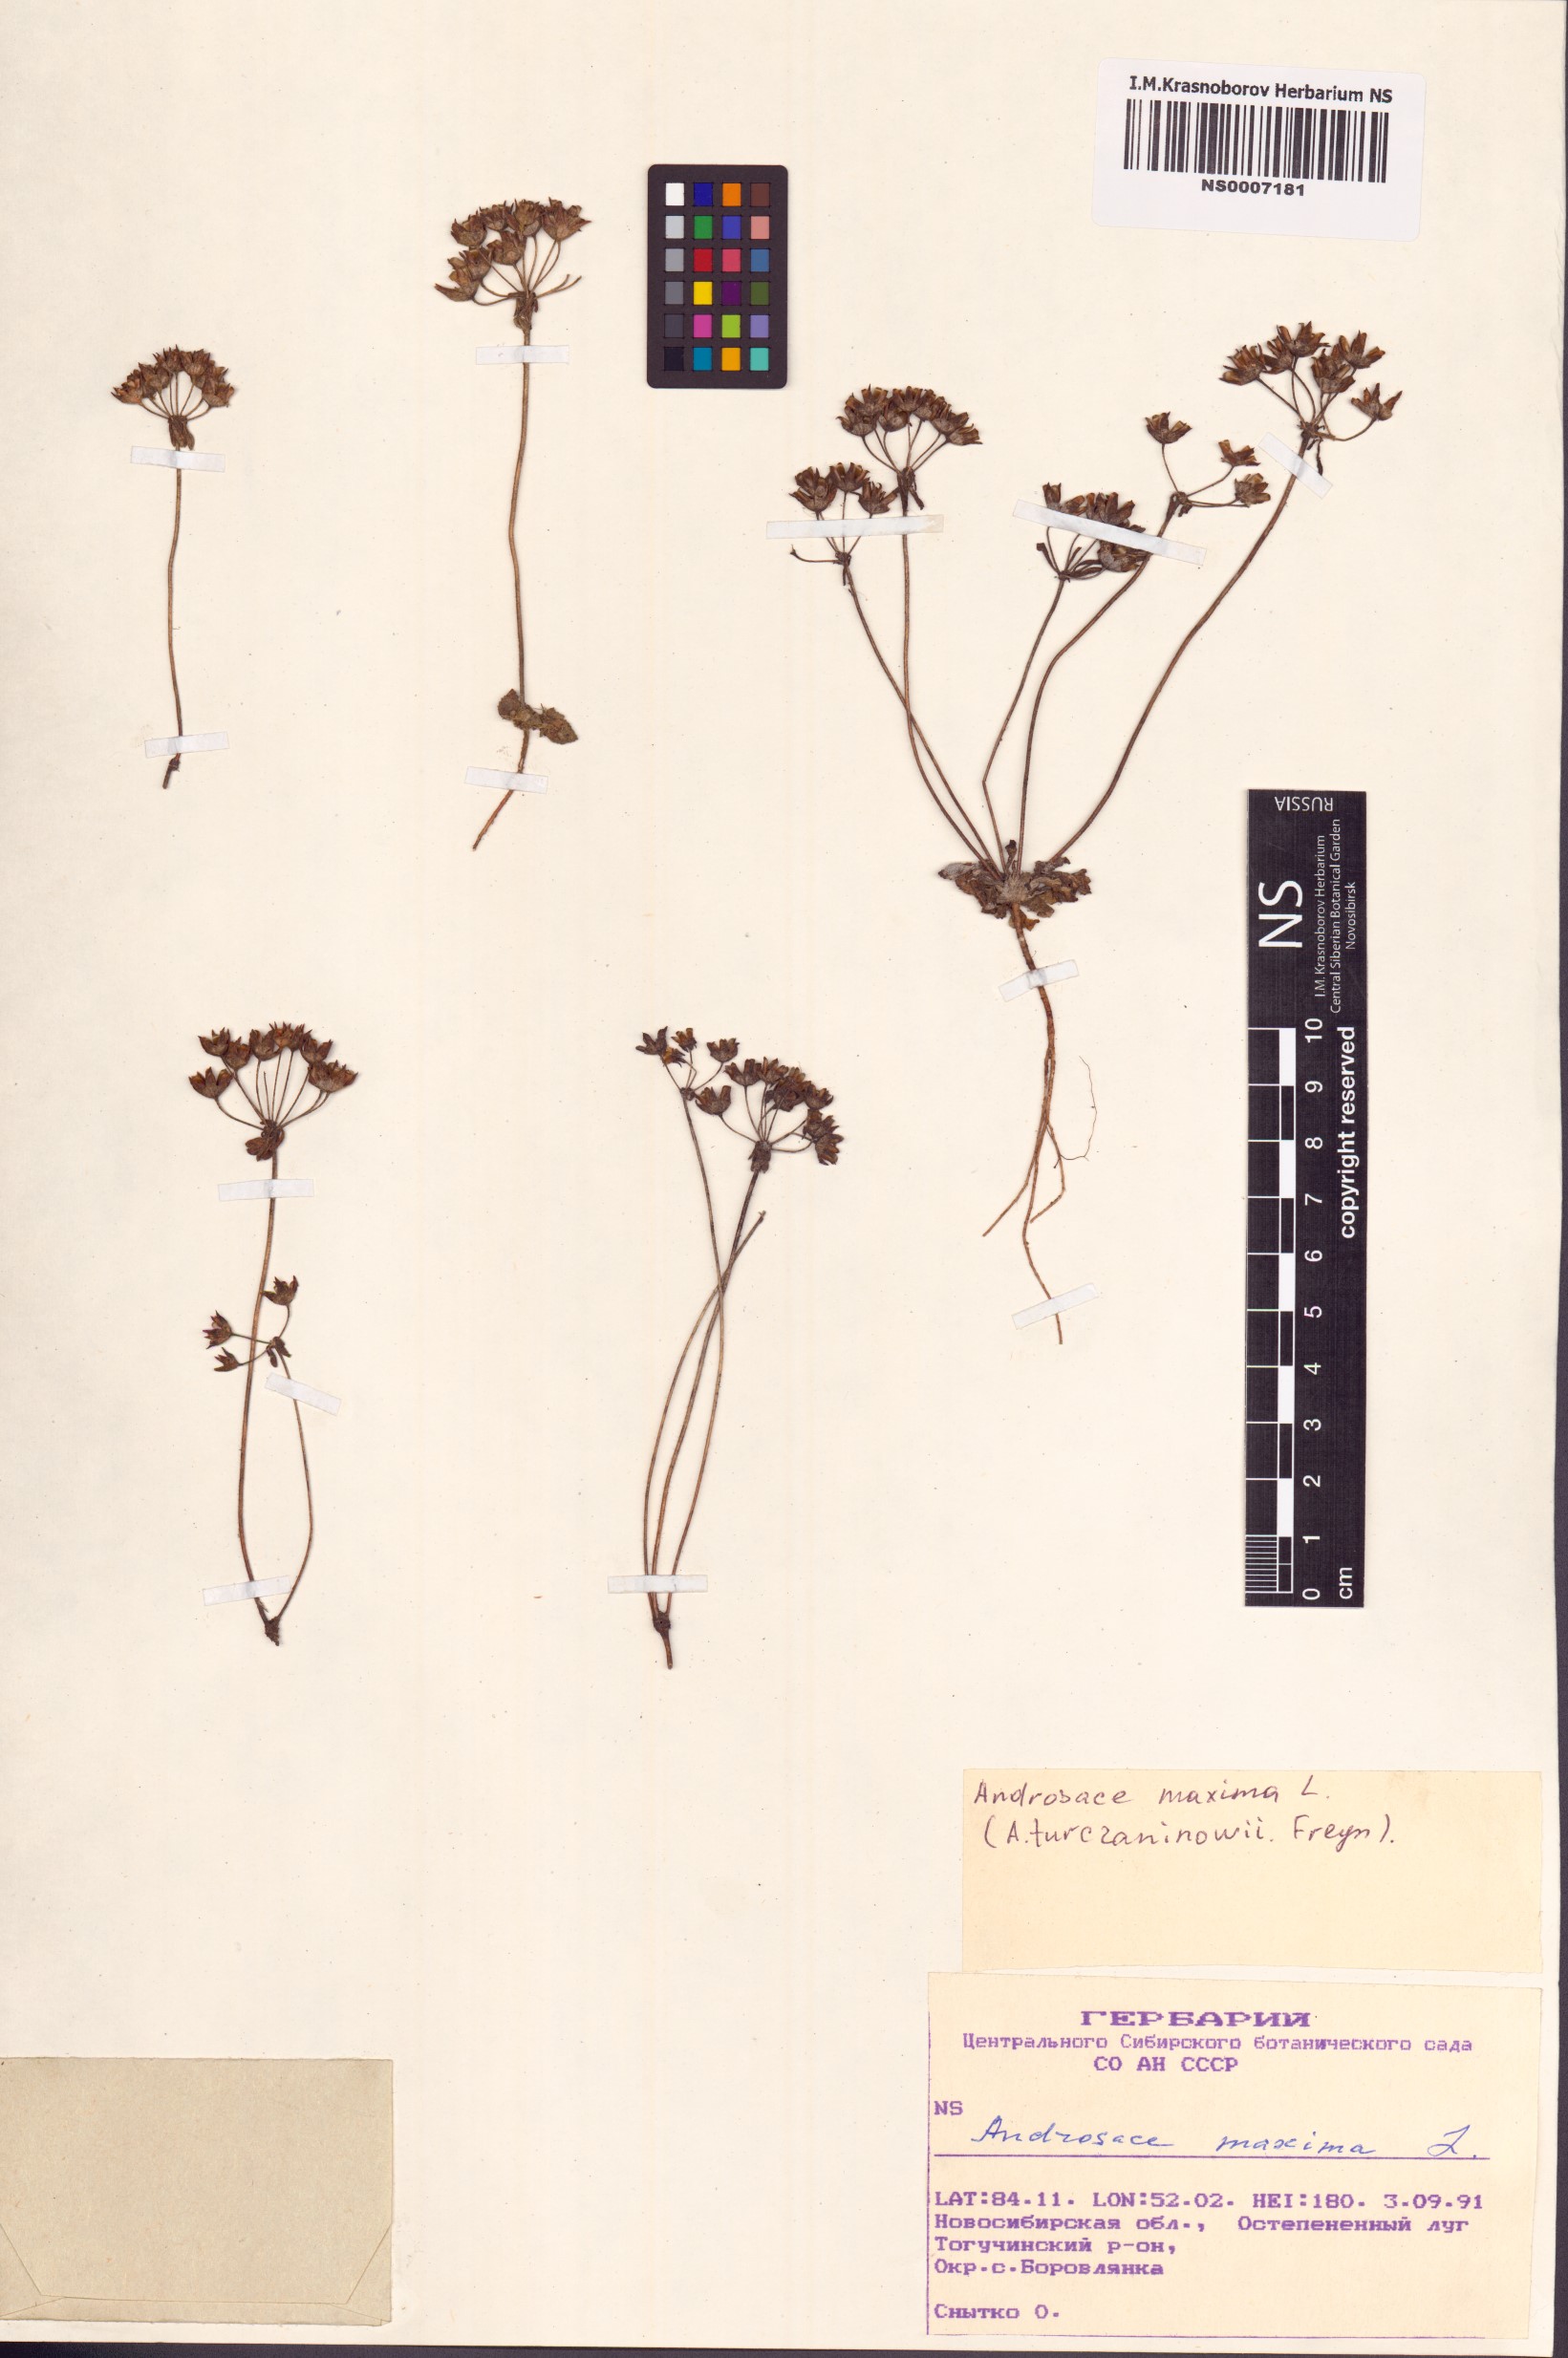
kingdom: Plantae
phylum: Tracheophyta
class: Magnoliopsida
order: Ericales
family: Primulaceae
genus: Androsace
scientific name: Androsace maxima
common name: Annual androsace
